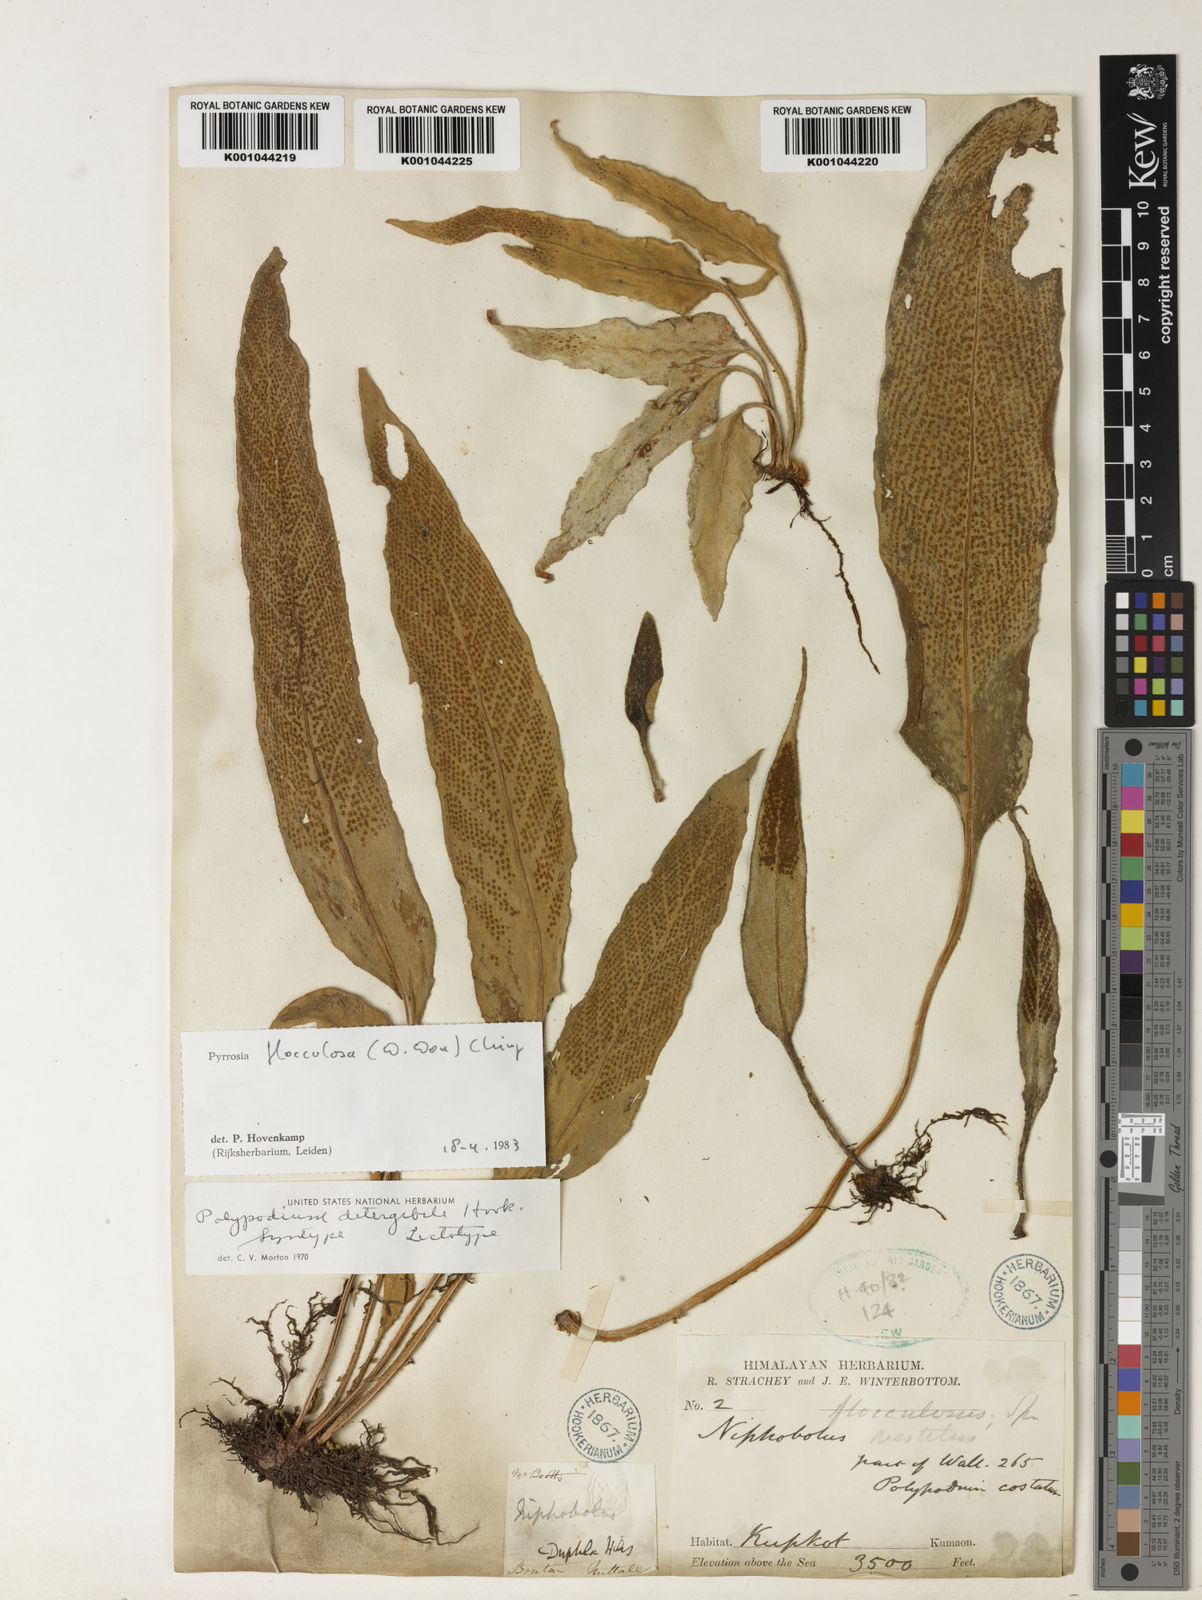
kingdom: Plantae
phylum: Tracheophyta
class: Polypodiopsida
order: Polypodiales
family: Polypodiaceae
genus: Pyrrosia
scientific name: Pyrrosia flocculosa
